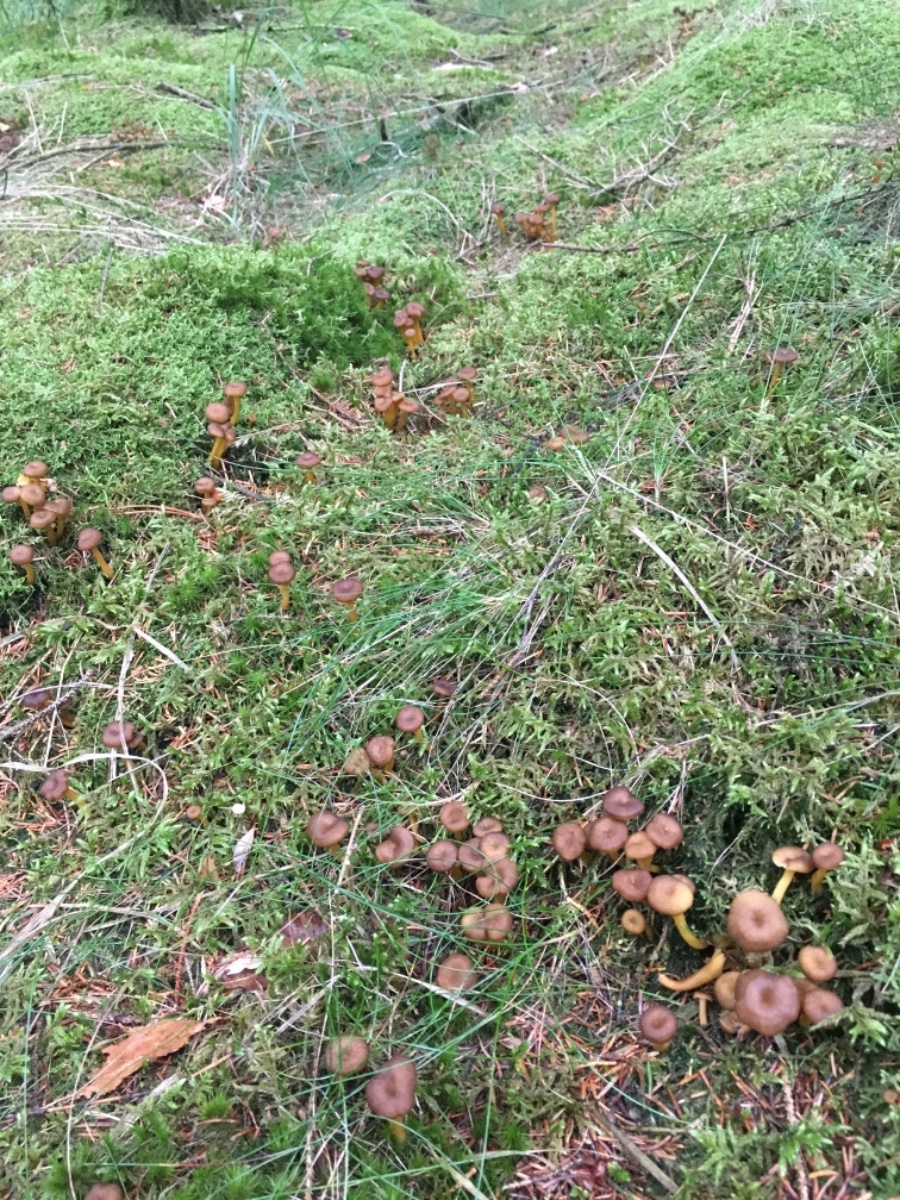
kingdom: Fungi
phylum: Basidiomycota
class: Agaricomycetes
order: Cantharellales
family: Hydnaceae
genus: Craterellus
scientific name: Craterellus tubaeformis
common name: tragt-kantarel
